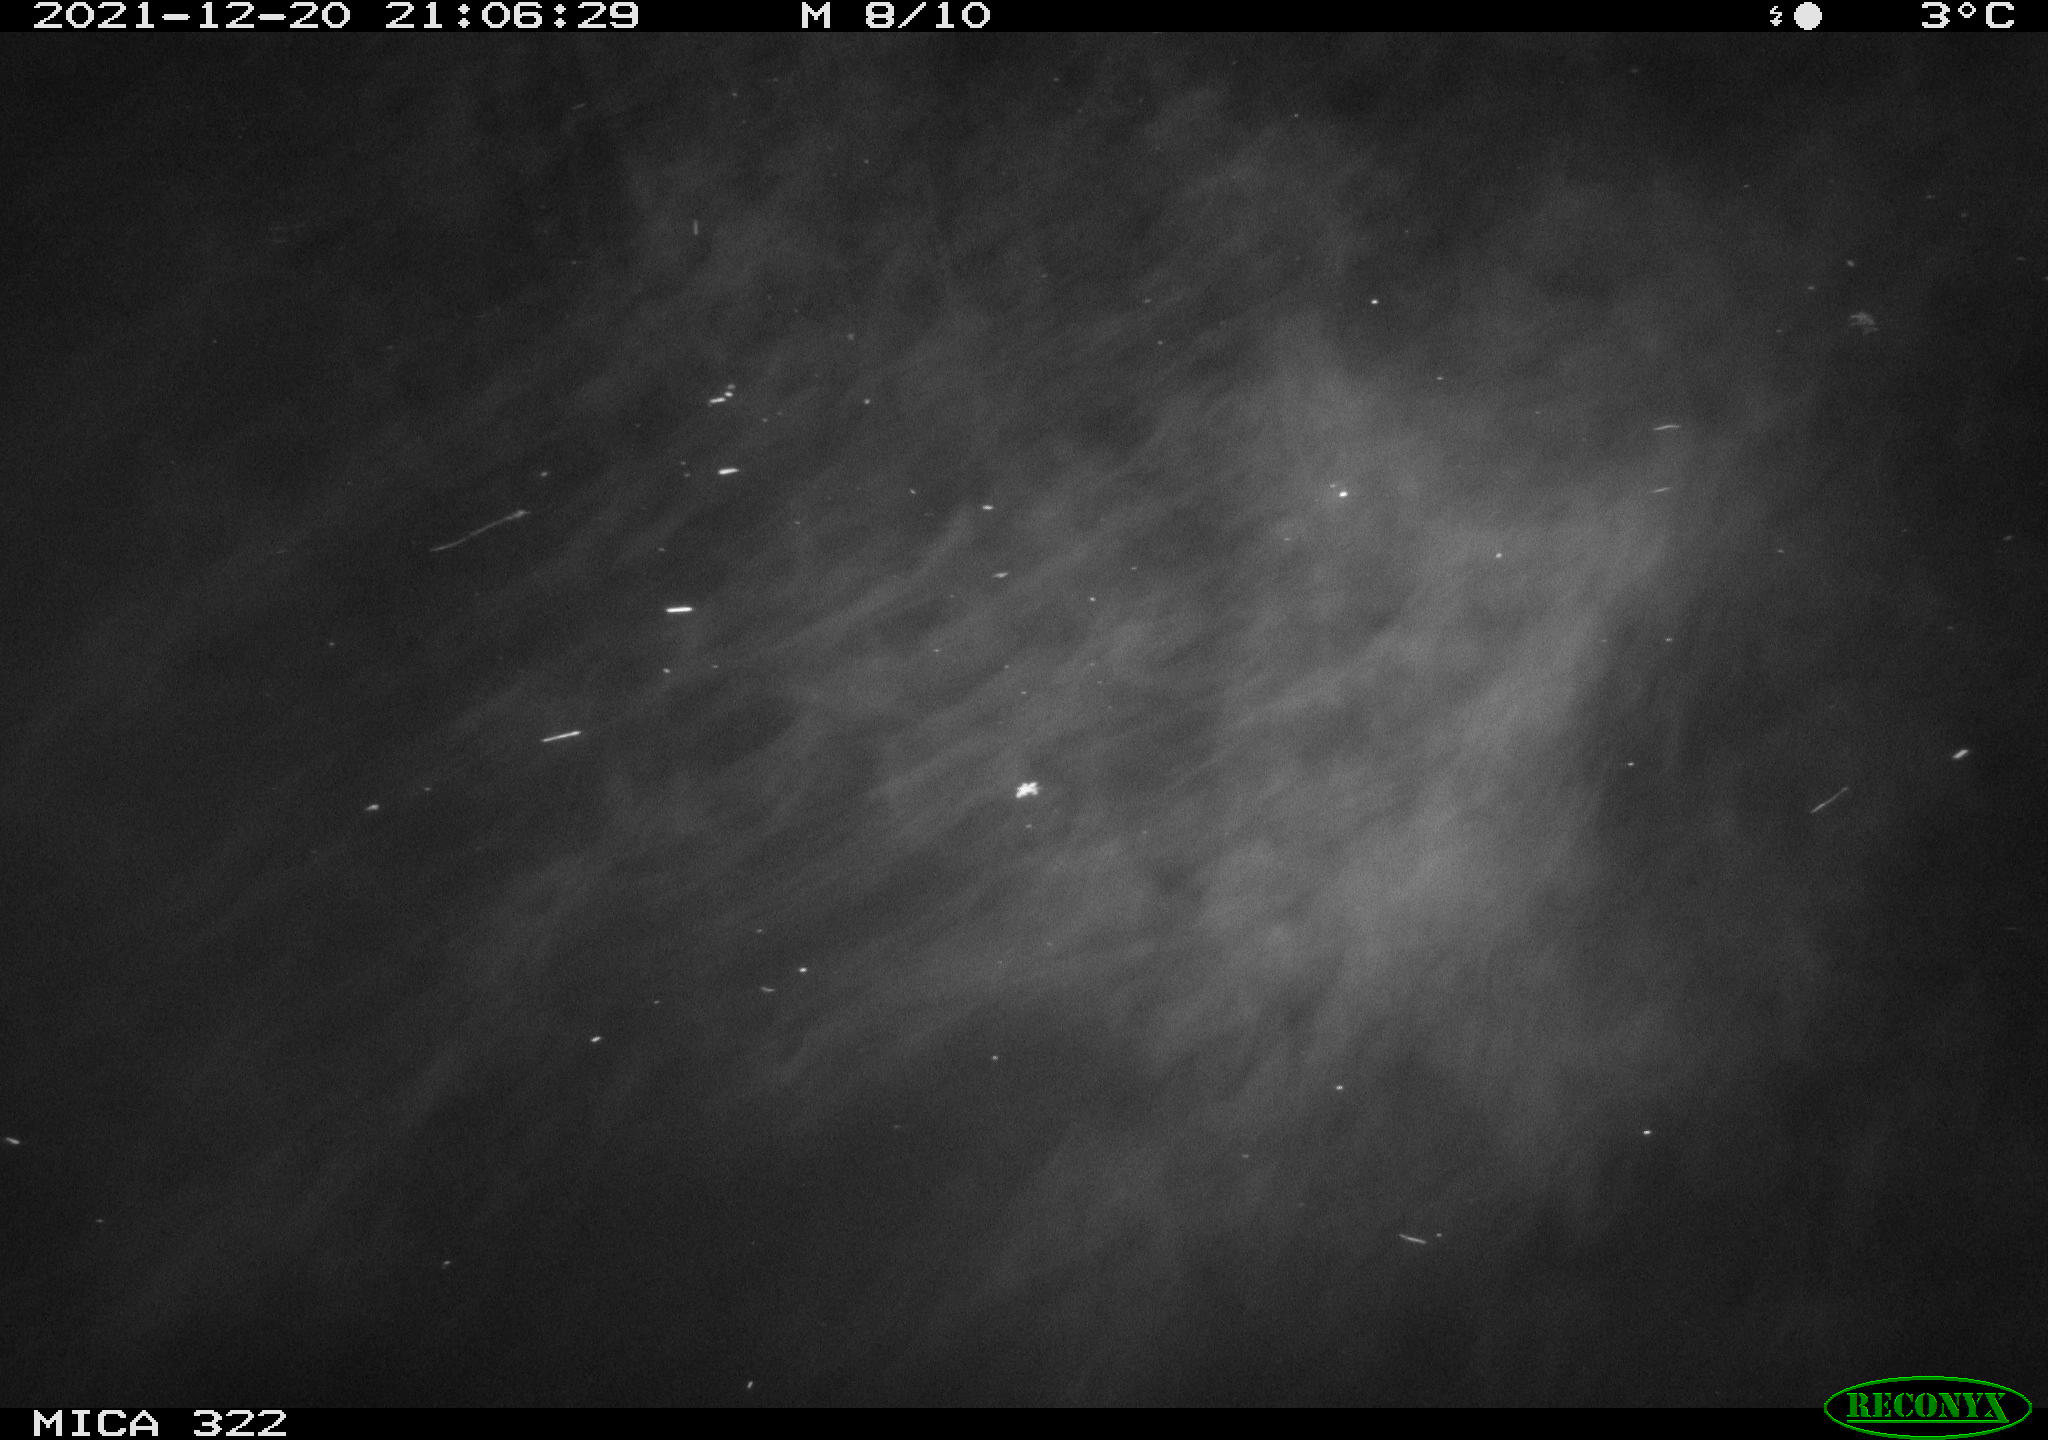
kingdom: Animalia
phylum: Chordata
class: Mammalia
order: Rodentia
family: Muridae
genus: Rattus
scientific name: Rattus norvegicus
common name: Brown rat
